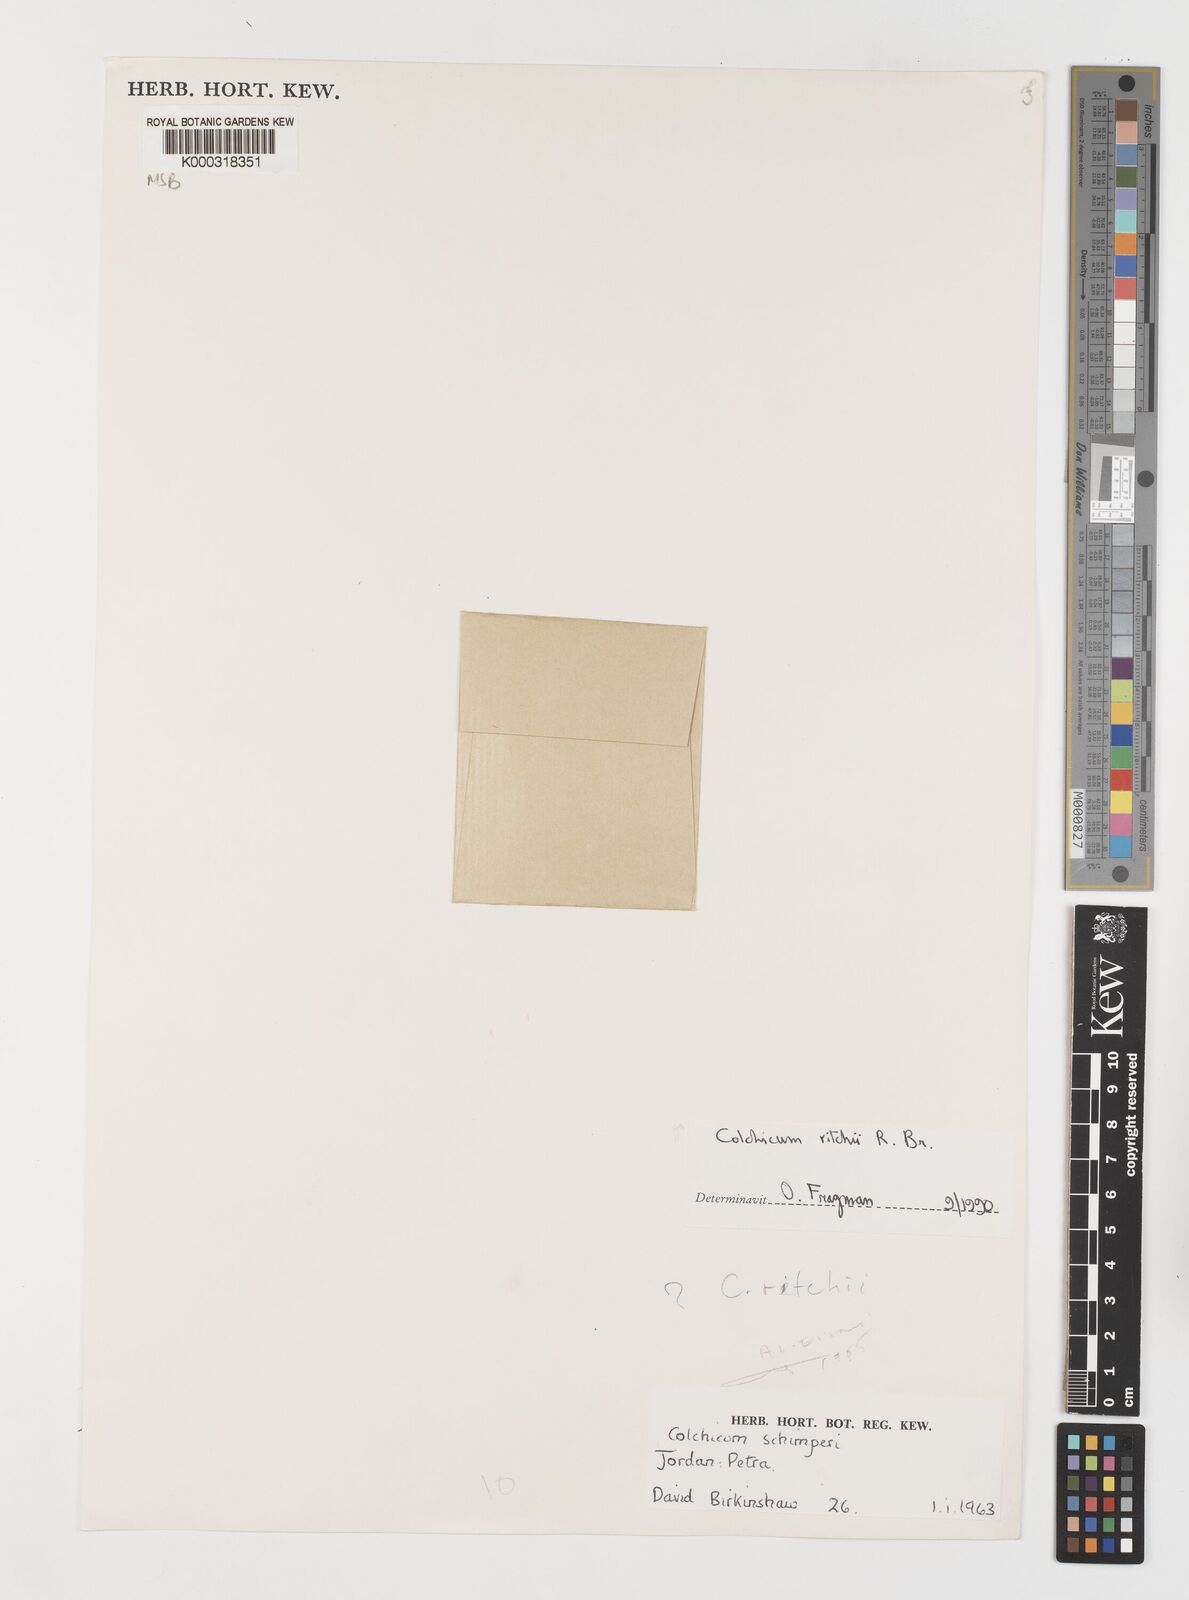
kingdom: Plantae
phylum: Tracheophyta
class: Liliopsida
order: Liliales
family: Colchicaceae
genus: Colchicum
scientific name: Colchicum ritchii
